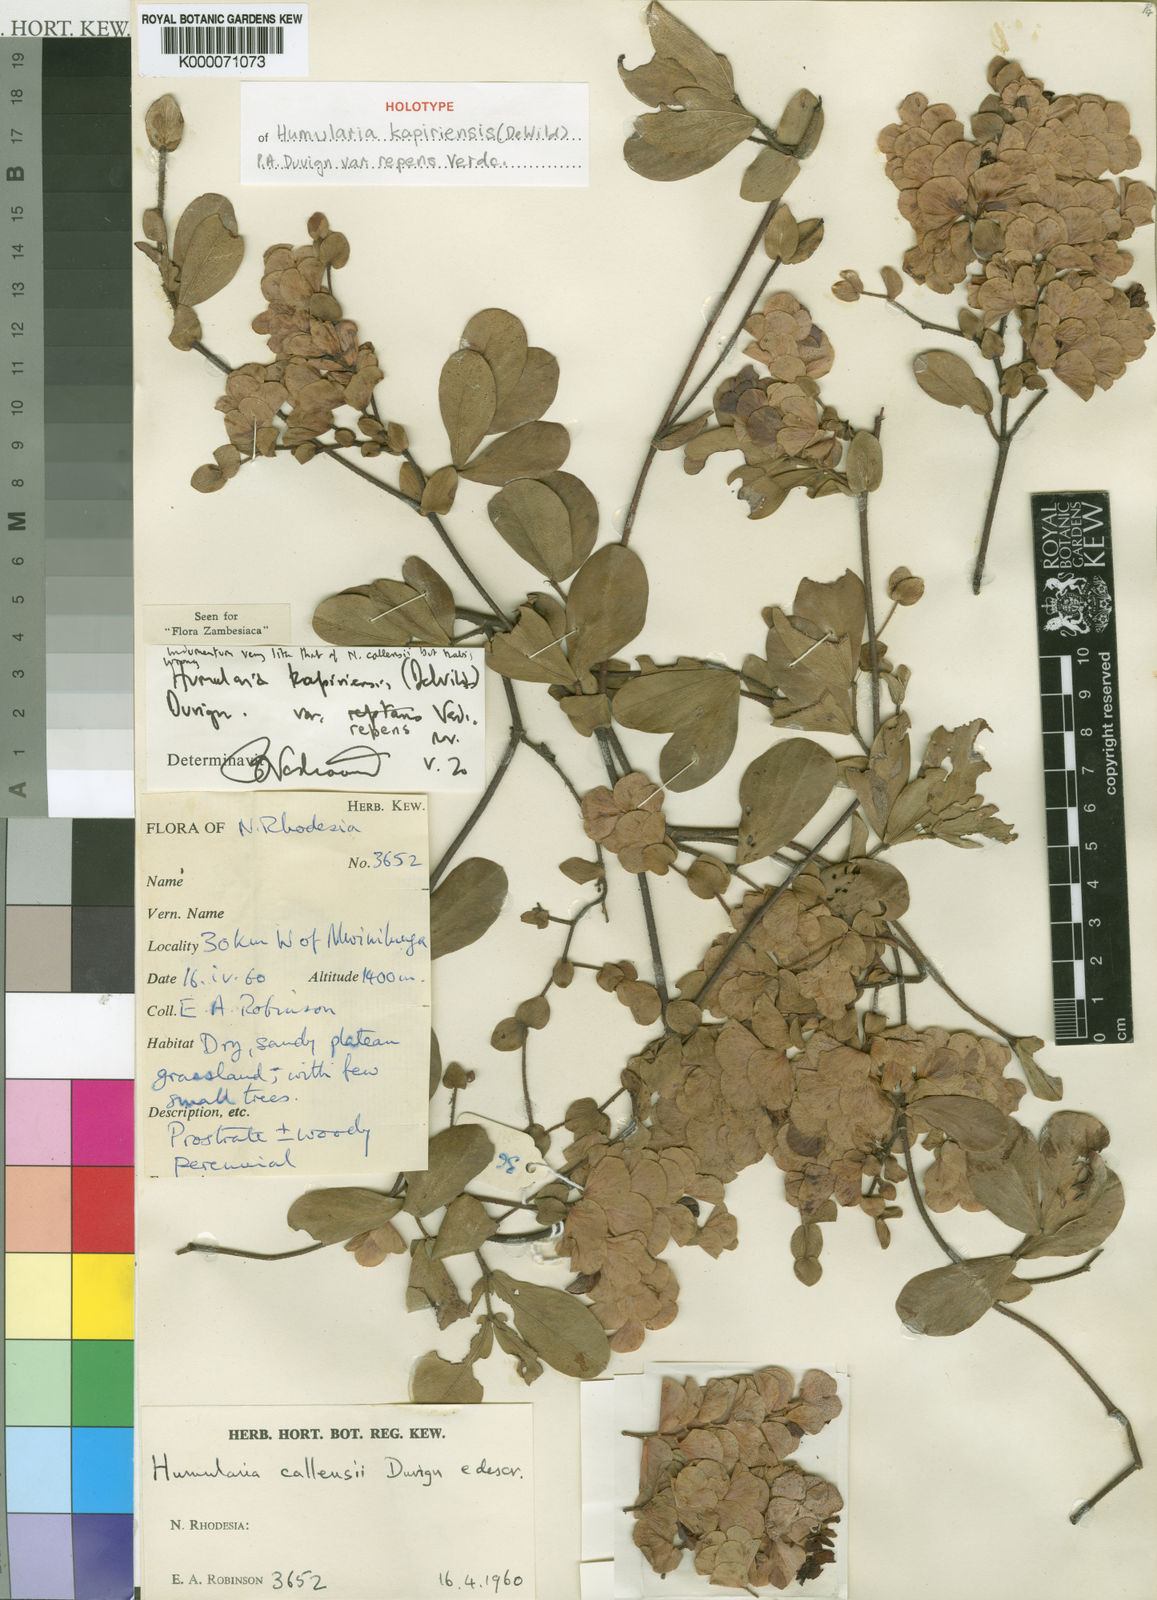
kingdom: Plantae
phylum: Tracheophyta
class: Magnoliopsida
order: Fabales
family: Fabaceae
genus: Humularia
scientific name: Humularia kapiriensis
